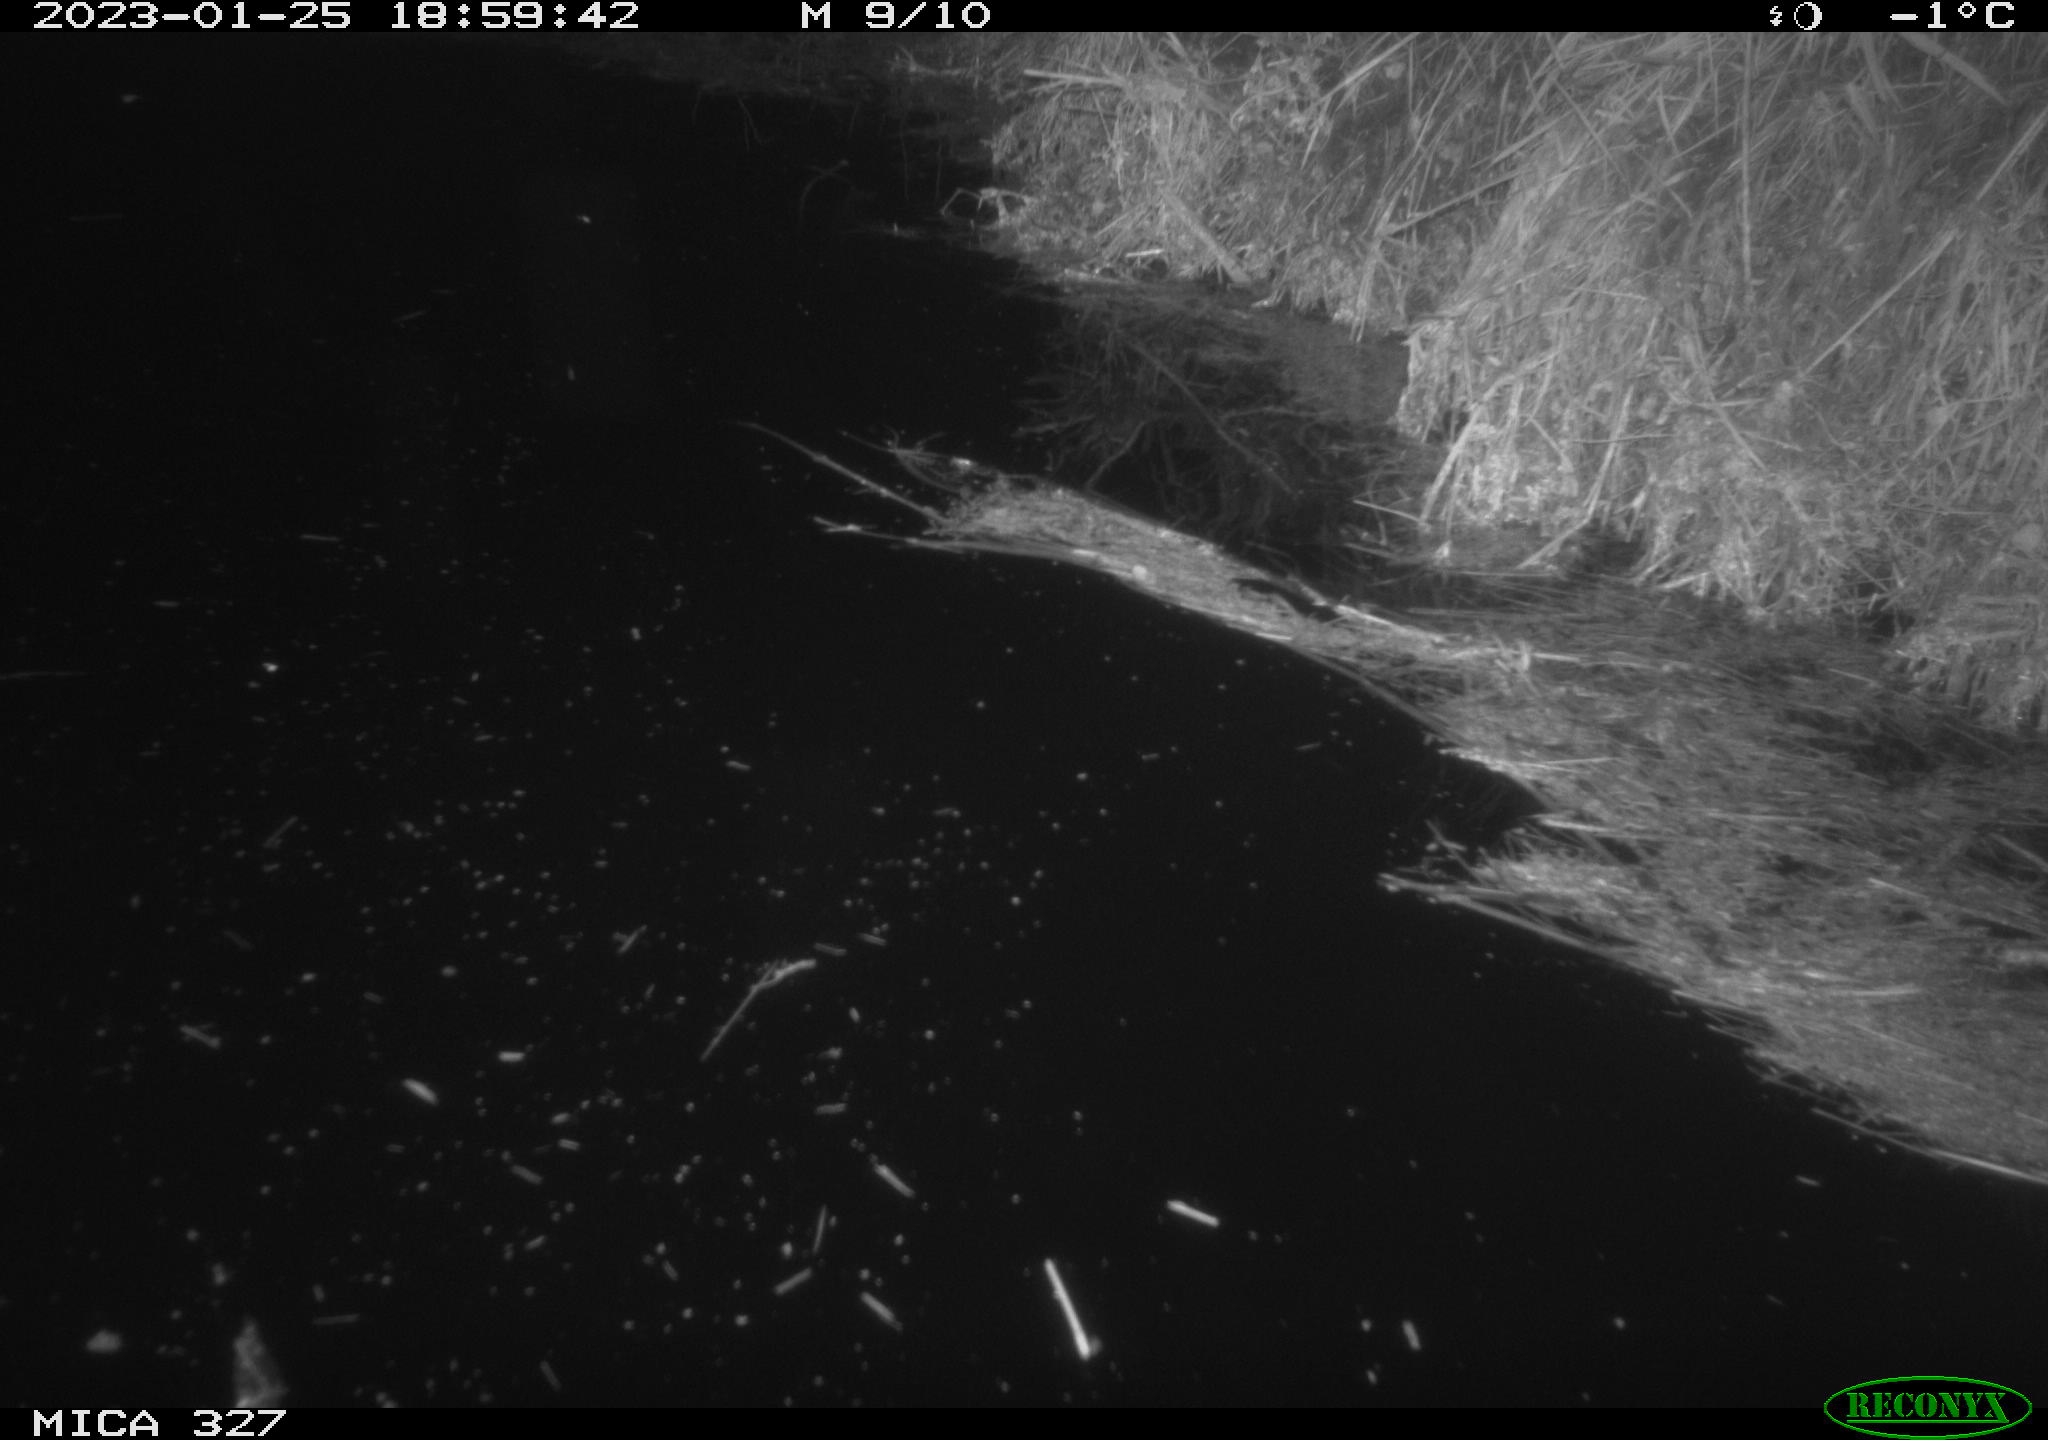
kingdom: Animalia
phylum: Chordata
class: Mammalia
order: Rodentia
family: Cricetidae
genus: Ondatra
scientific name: Ondatra zibethicus
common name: Muskrat
